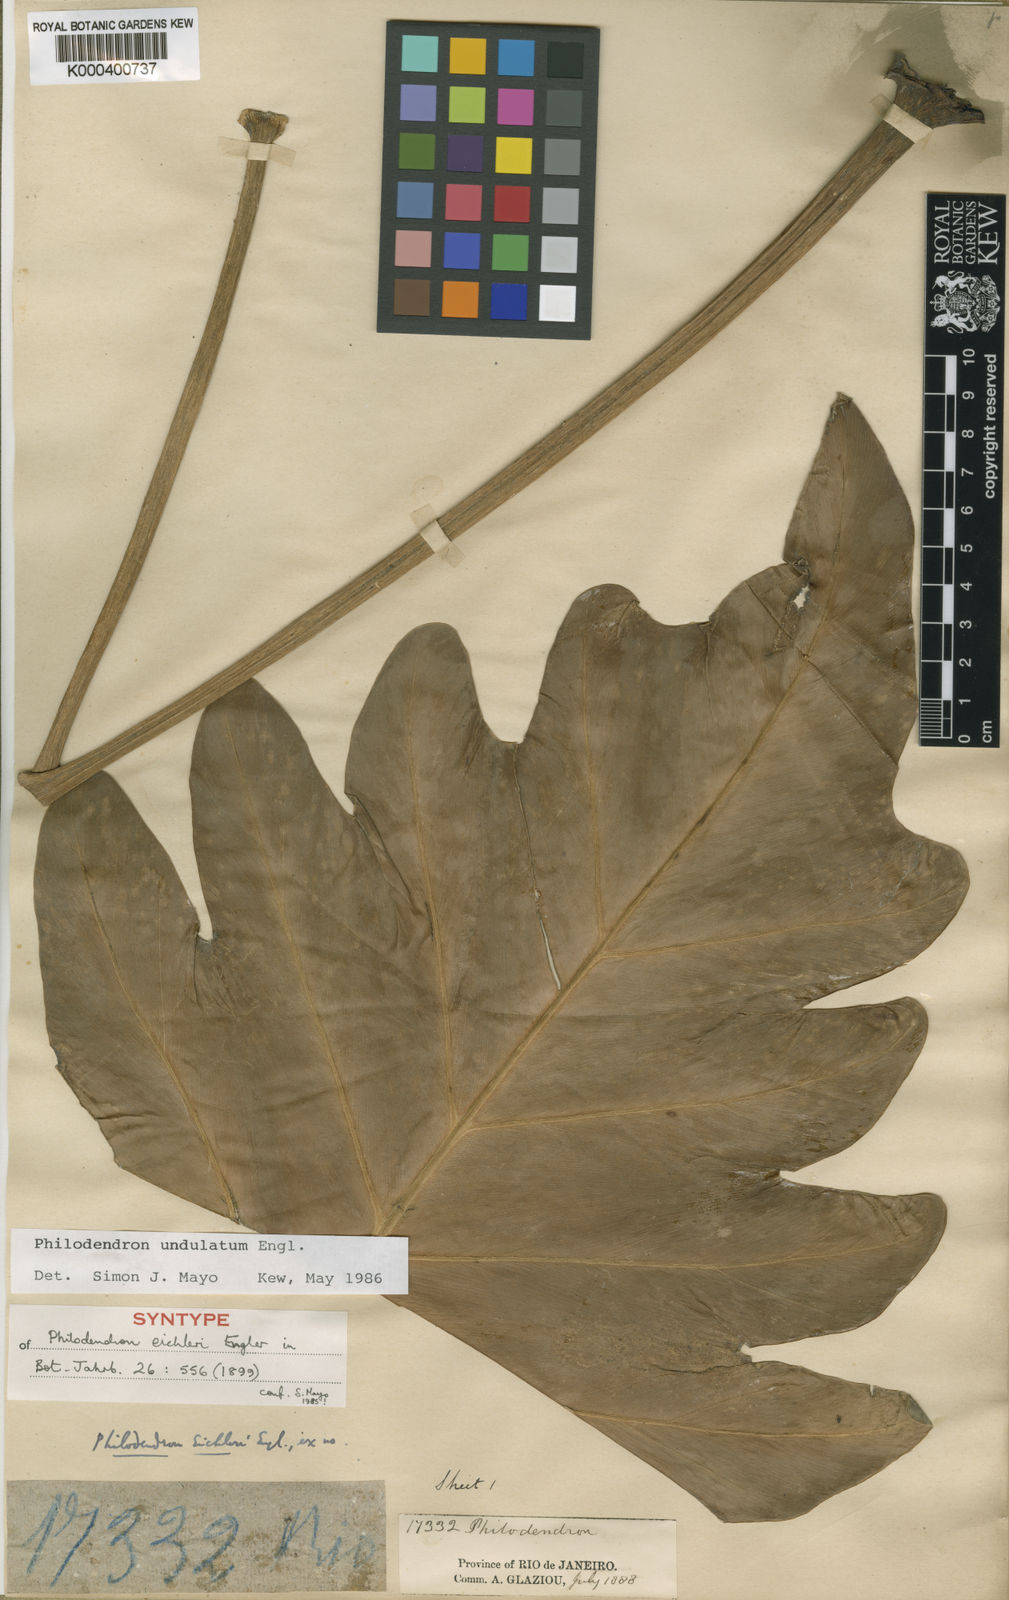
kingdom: Plantae
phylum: Tracheophyta
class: Liliopsida
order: Alismatales
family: Araceae
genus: Thaumatophyllum
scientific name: Thaumatophyllum undulatum
